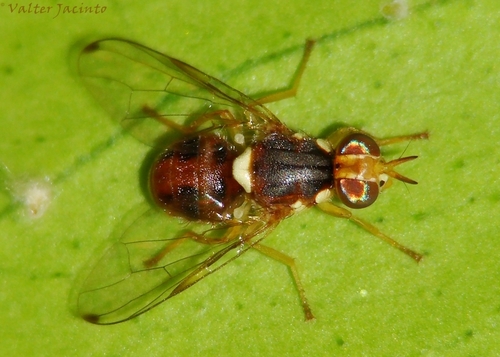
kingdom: Animalia
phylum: Arthropoda
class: Insecta
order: Diptera
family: Tephritidae
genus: Bactrocera
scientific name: Bactrocera oleae
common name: Olive fruit fly
